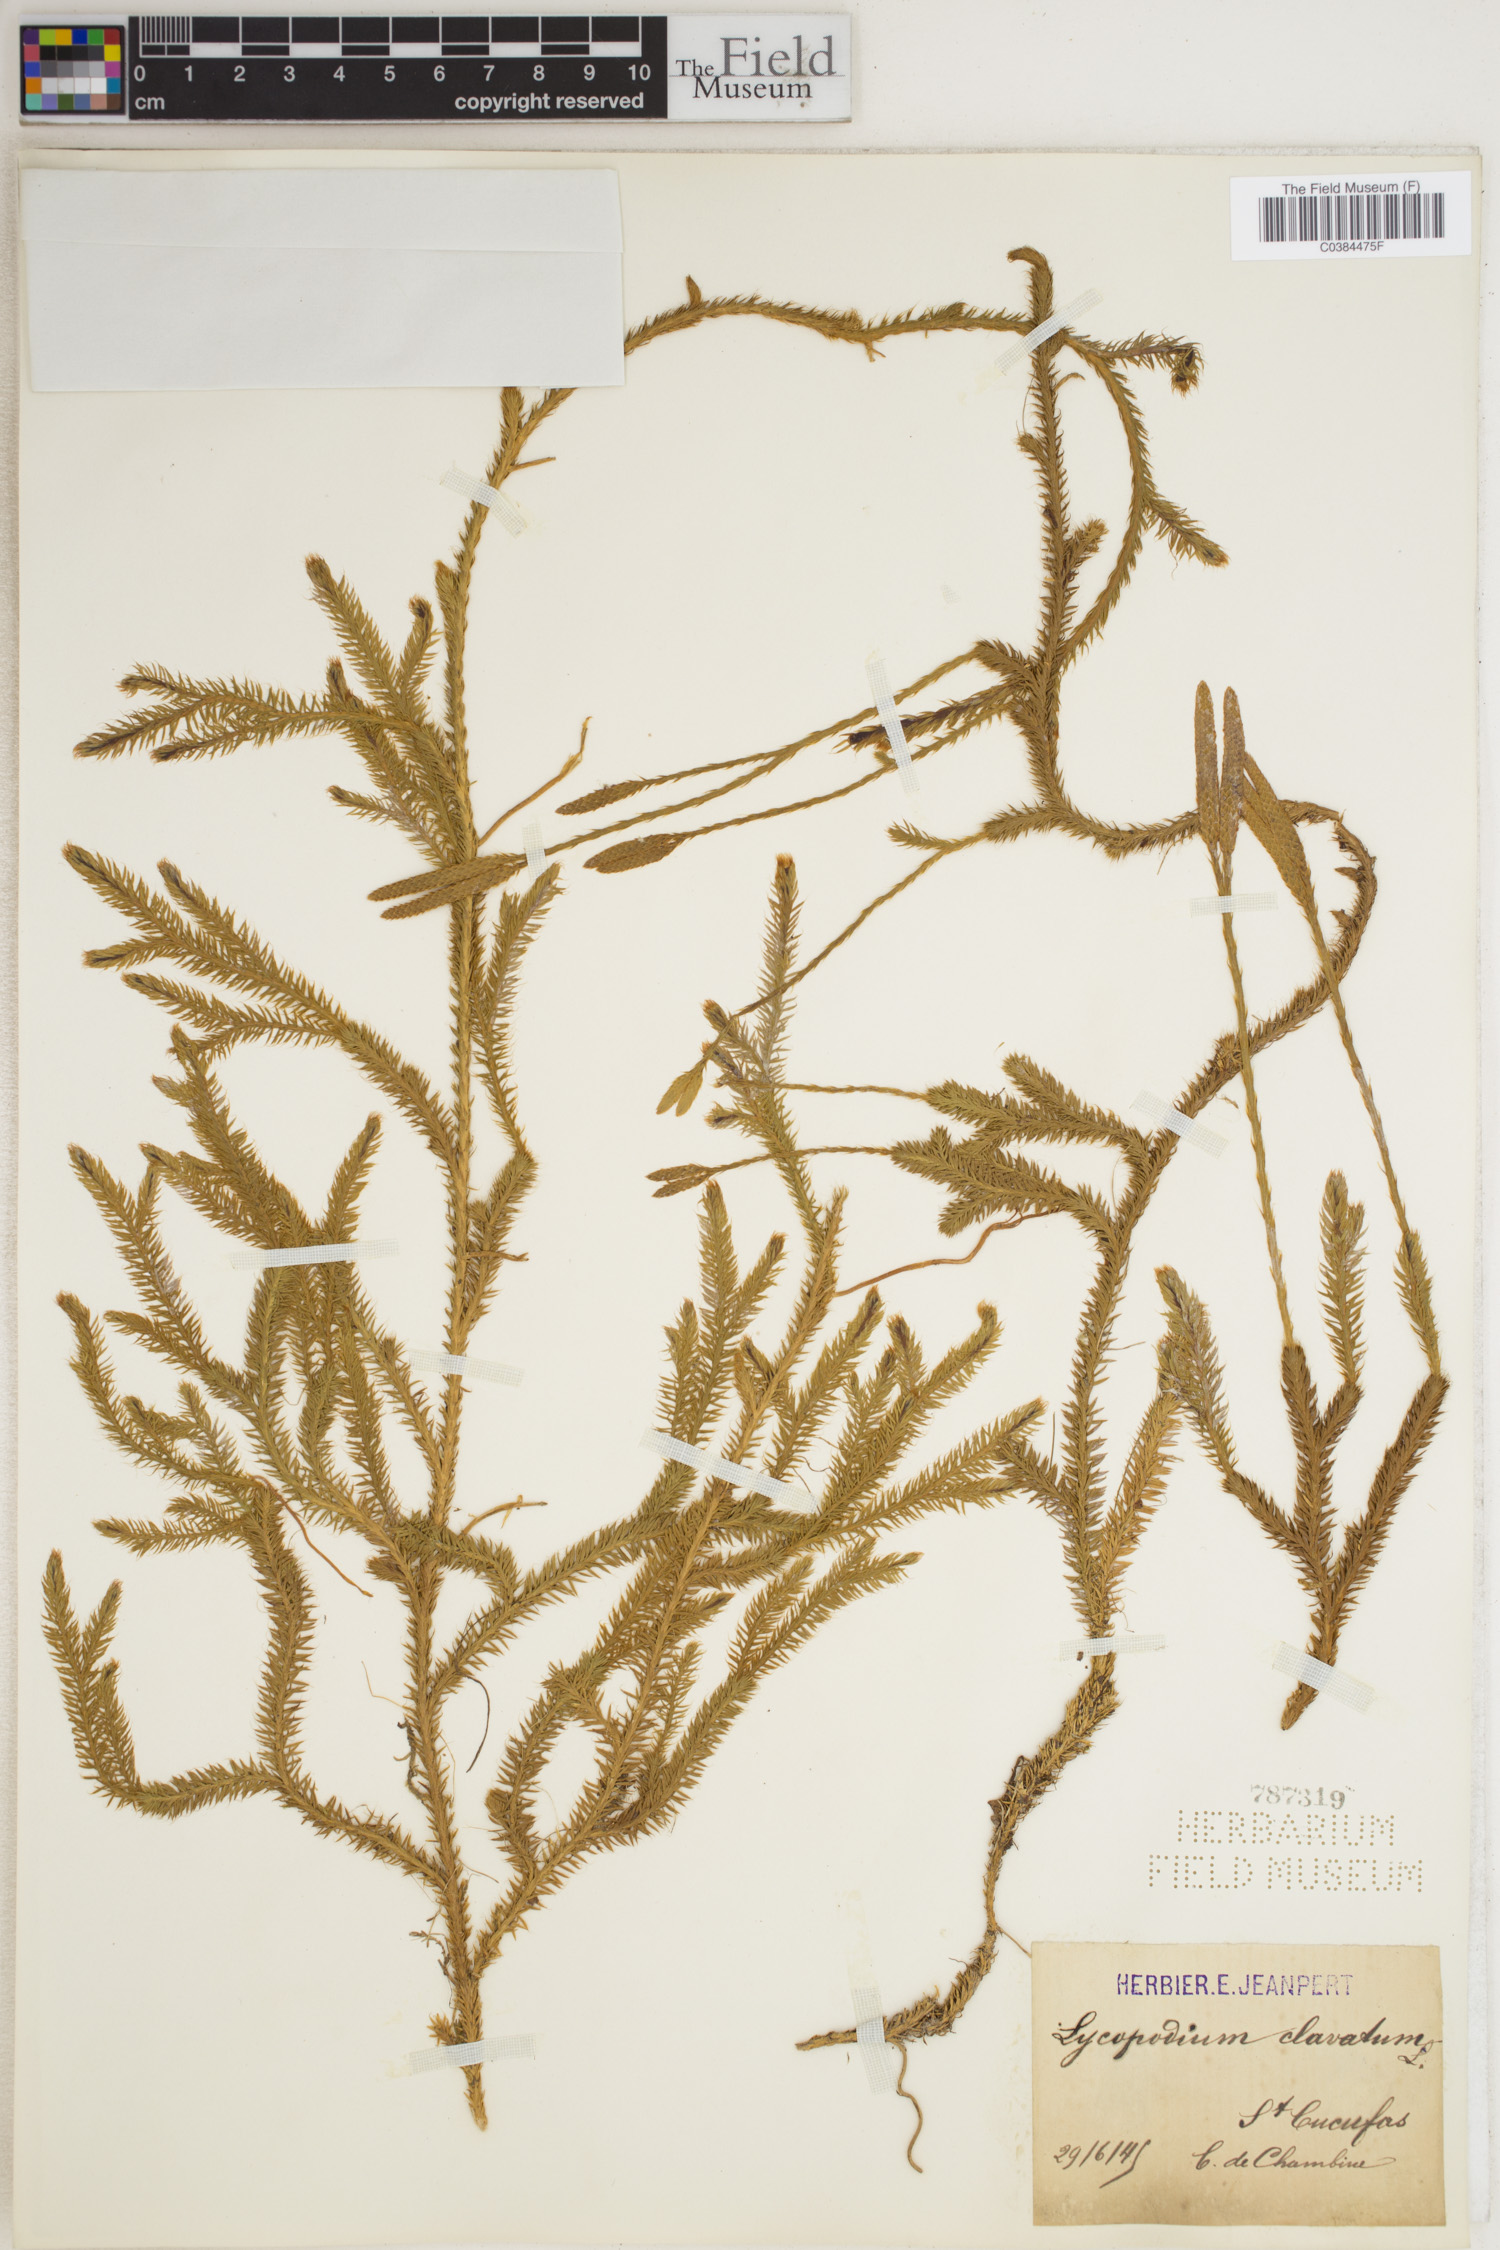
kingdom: Plantae
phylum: Tracheophyta
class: Lycopodiopsida
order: Lycopodiales
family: Lycopodiaceae
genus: Lycopodium
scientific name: Lycopodium clavatum
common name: Stag's-horn clubmoss
